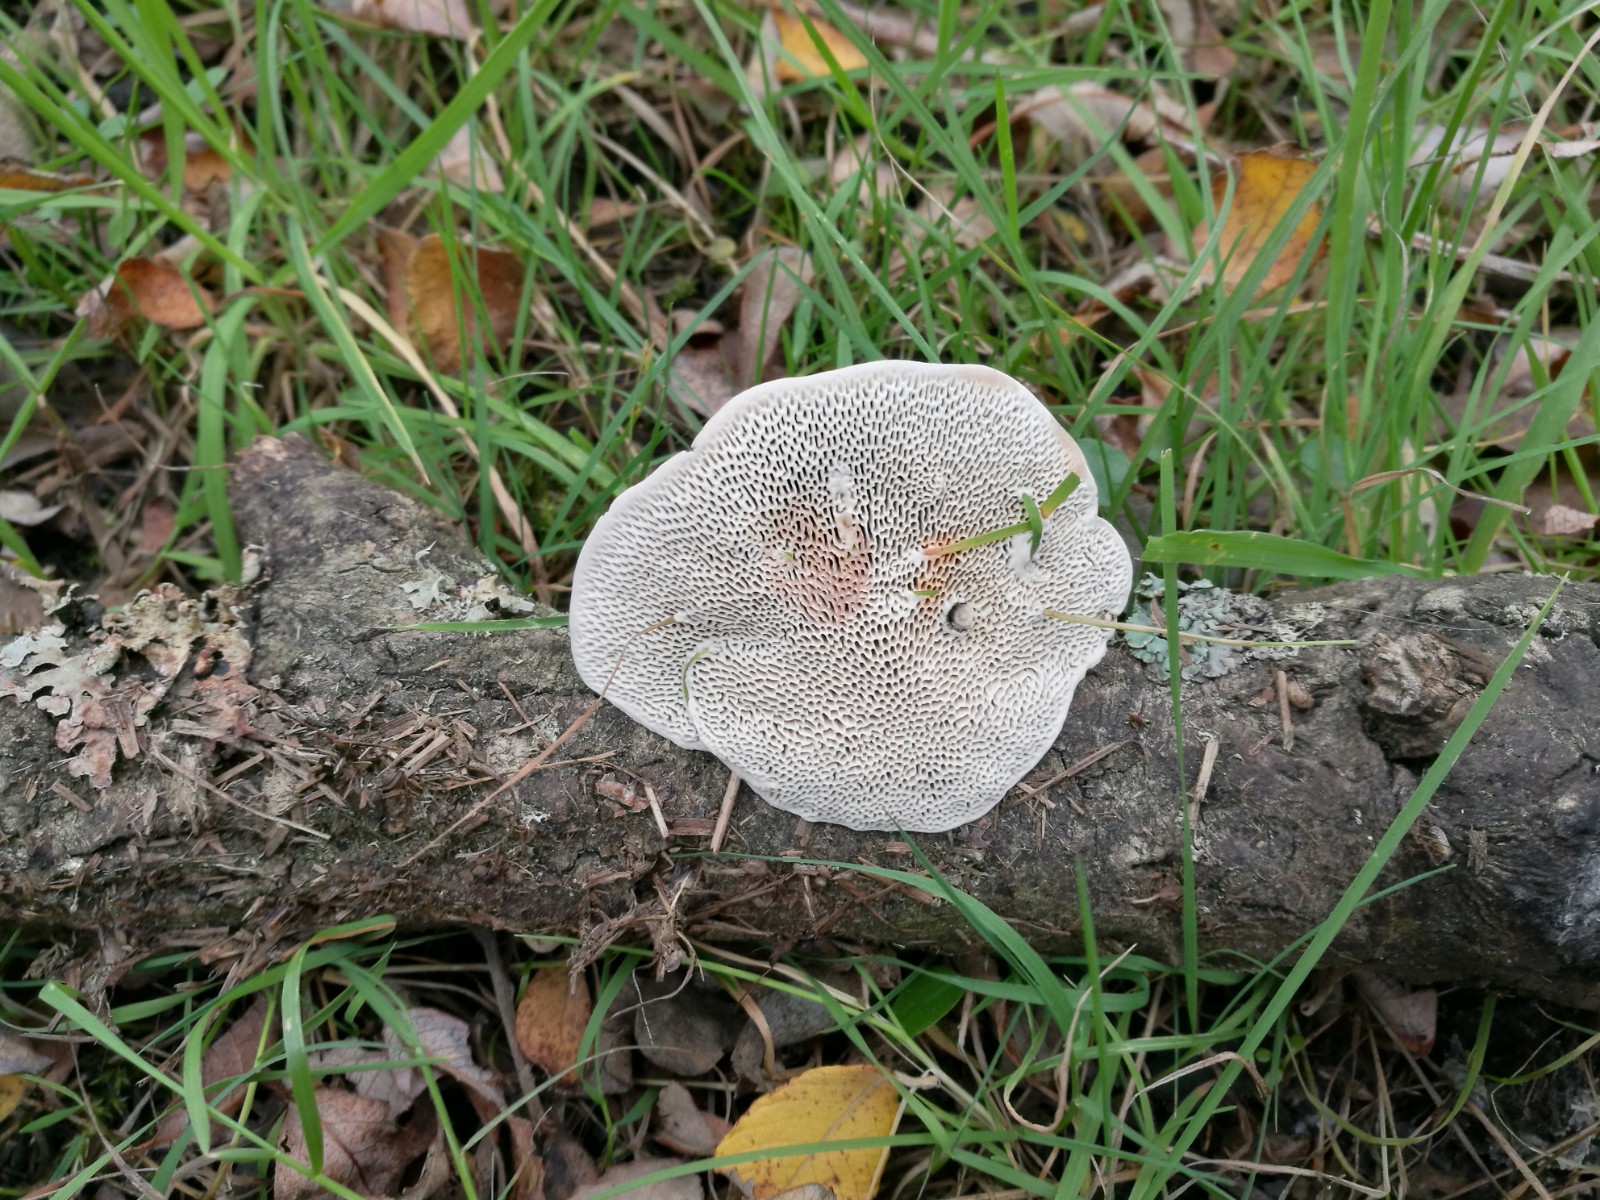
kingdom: Fungi
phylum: Basidiomycota
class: Agaricomycetes
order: Polyporales
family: Polyporaceae
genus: Daedaleopsis
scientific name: Daedaleopsis confragosa
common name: rødmende læderporesvamp
